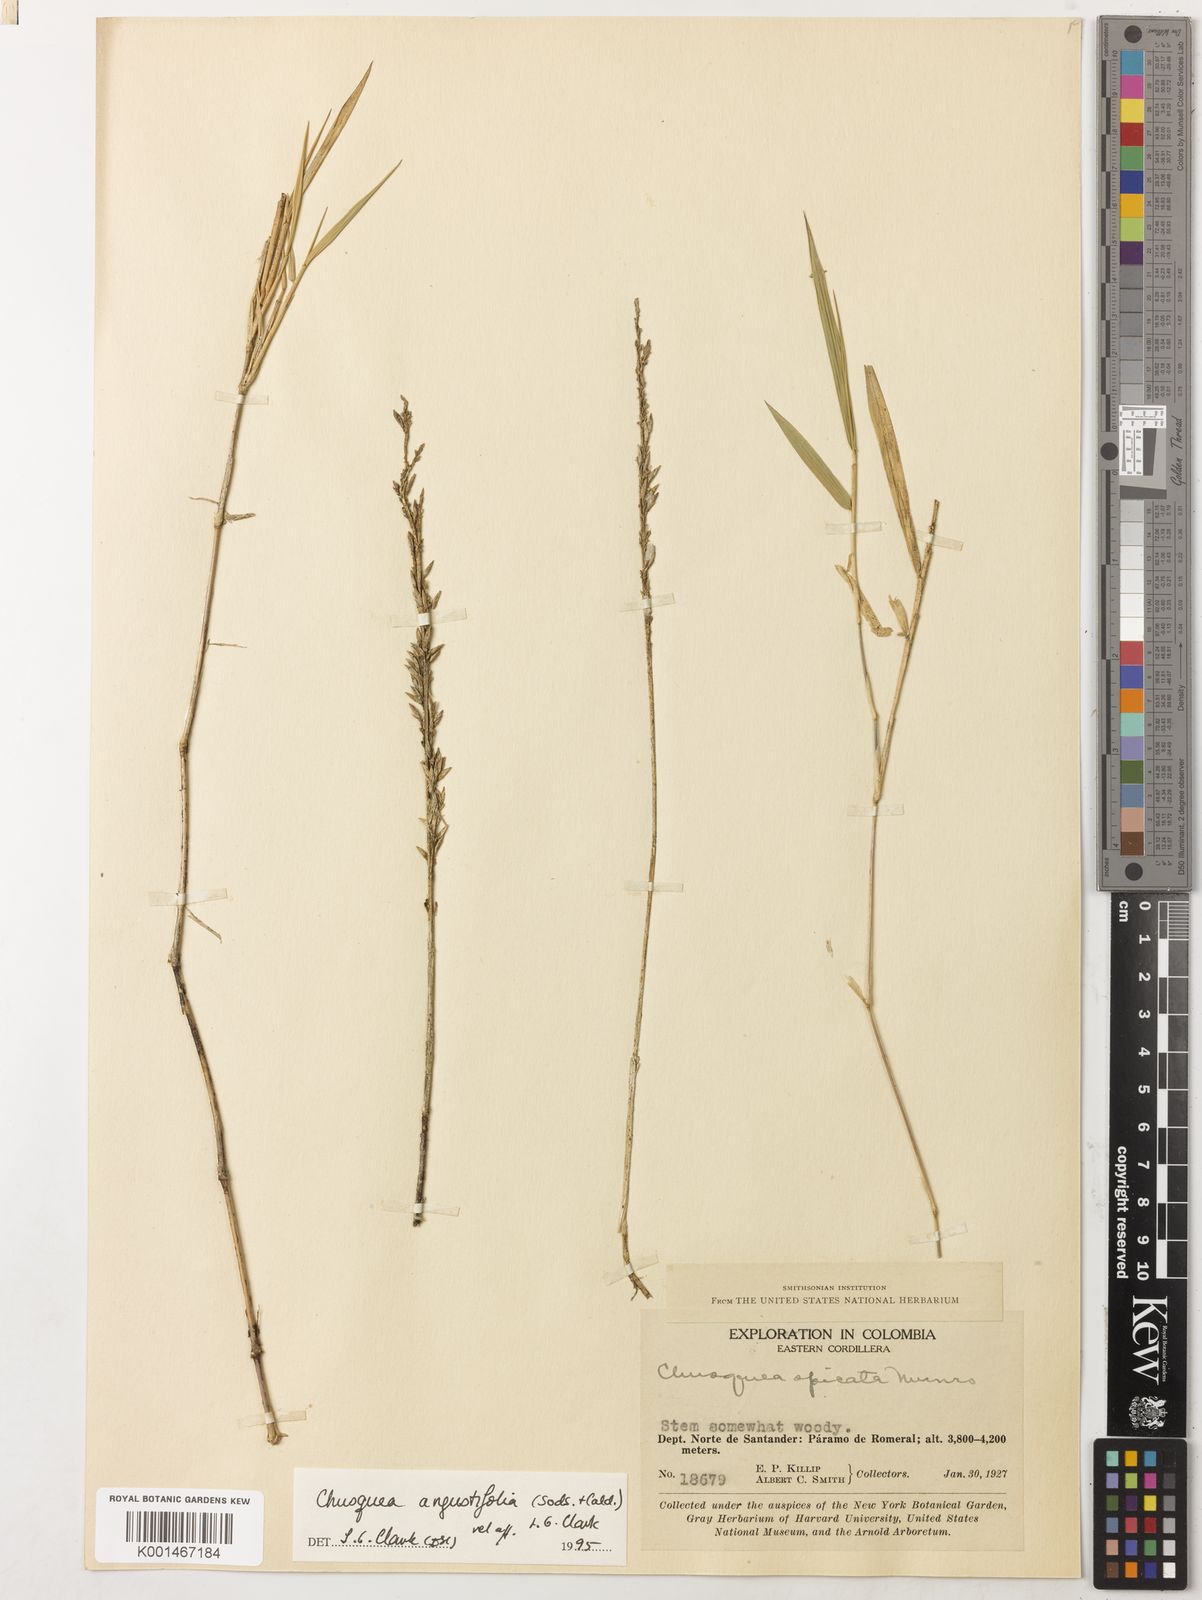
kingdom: Plantae
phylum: Tracheophyta
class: Liliopsida
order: Poales
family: Poaceae
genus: Chusquea
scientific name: Chusquea
